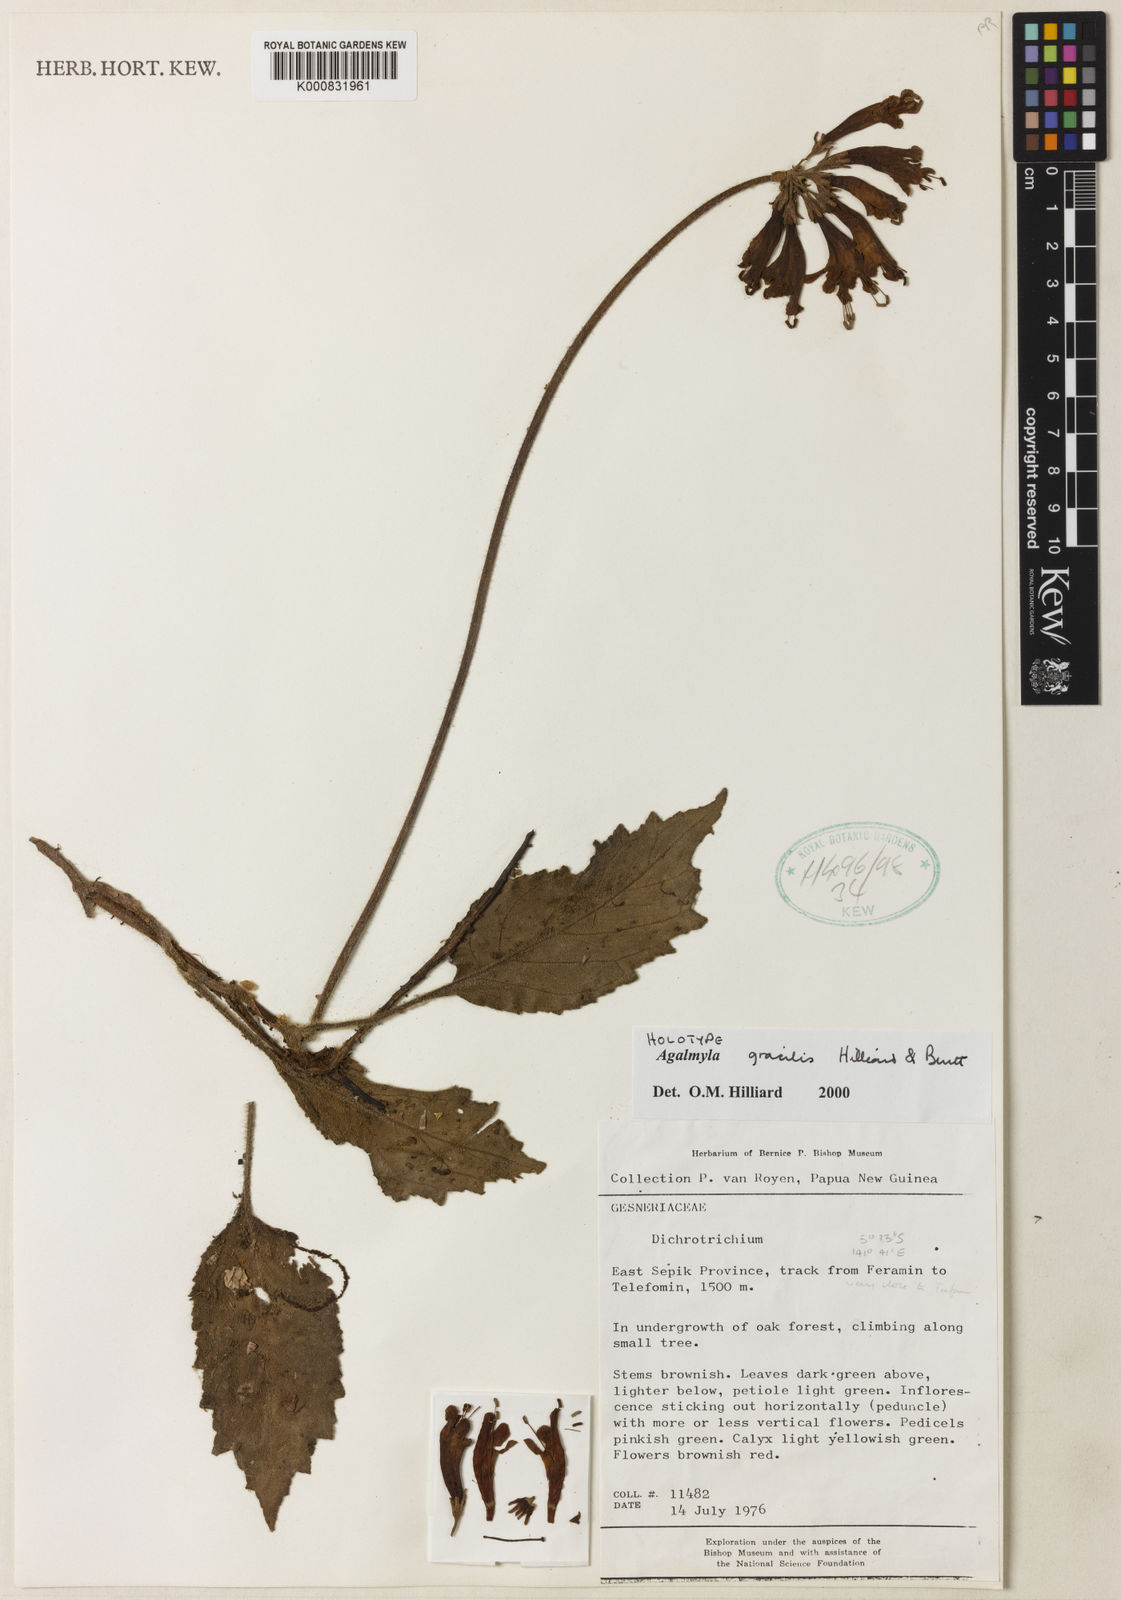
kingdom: Plantae
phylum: Tracheophyta
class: Magnoliopsida
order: Lamiales
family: Gesneriaceae
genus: Agalmyla
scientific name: Agalmyla gracilis
